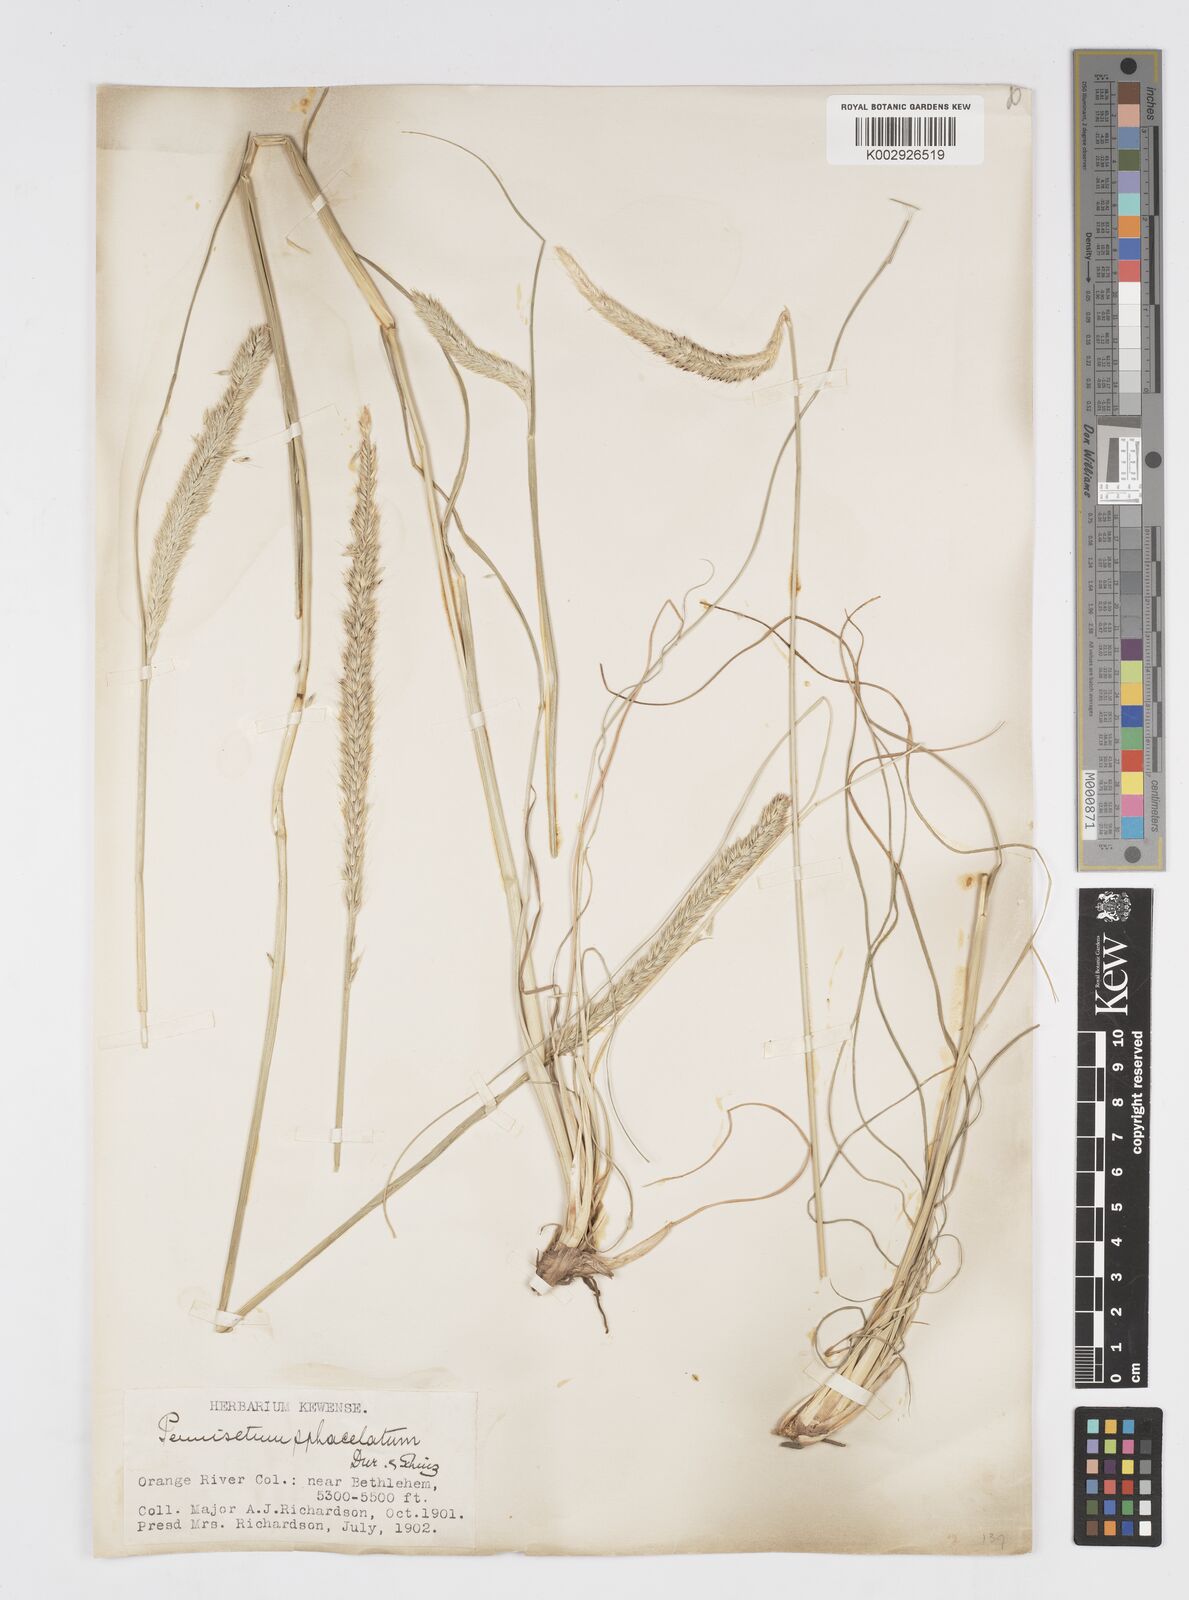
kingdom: Plantae
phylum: Tracheophyta
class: Liliopsida
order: Poales
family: Poaceae
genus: Cenchrus
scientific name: Cenchrus sphacelatus
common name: Bulgras
